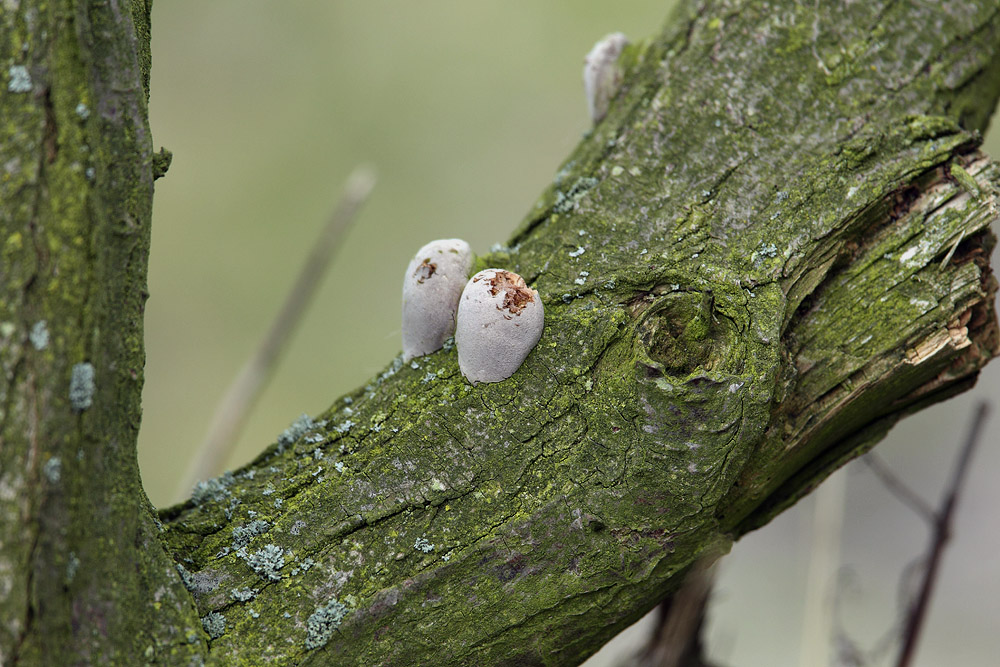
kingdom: Fungi
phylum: Basidiomycota
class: Agaricomycetes
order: Hymenochaetales
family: Hymenochaetaceae
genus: Fomitiporia
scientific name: Fomitiporia hippophaeicola
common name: havtorn-ildporesvamp
